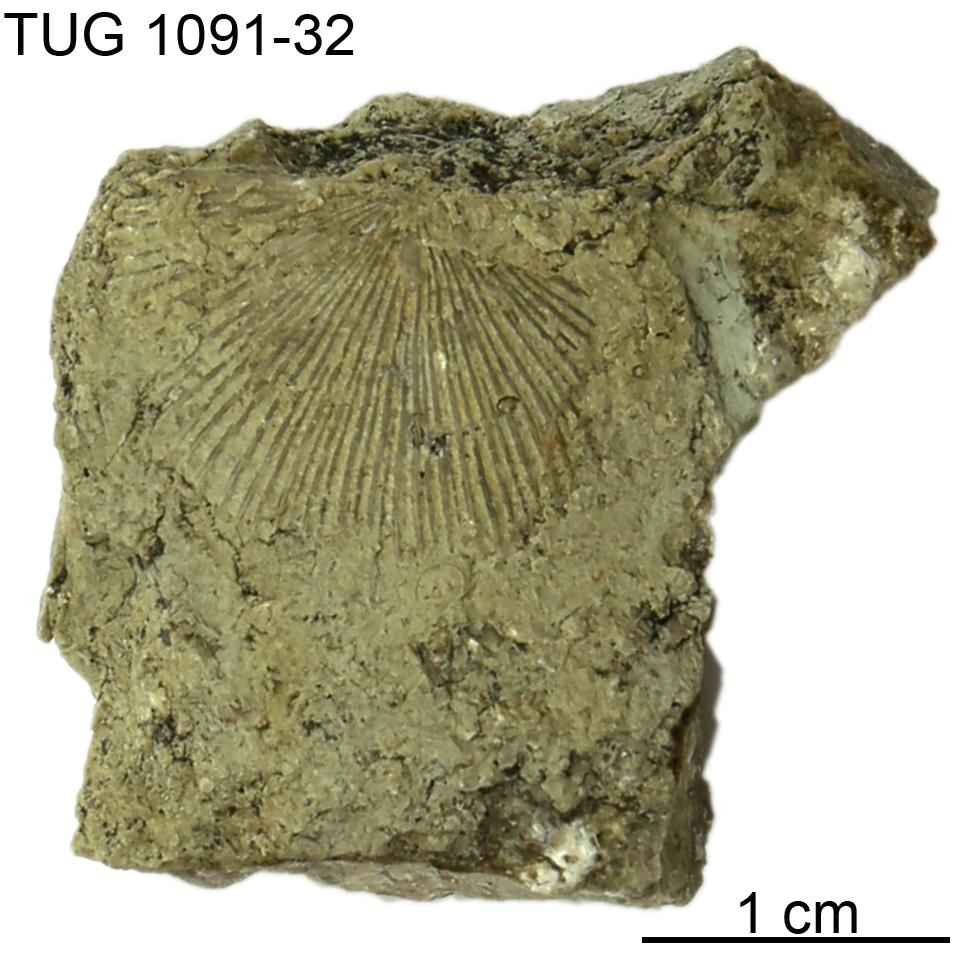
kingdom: Animalia
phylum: Brachiopoda
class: Rhynchonellata
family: Dolerorthidae
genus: Dolerorthis
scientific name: Dolerorthis
